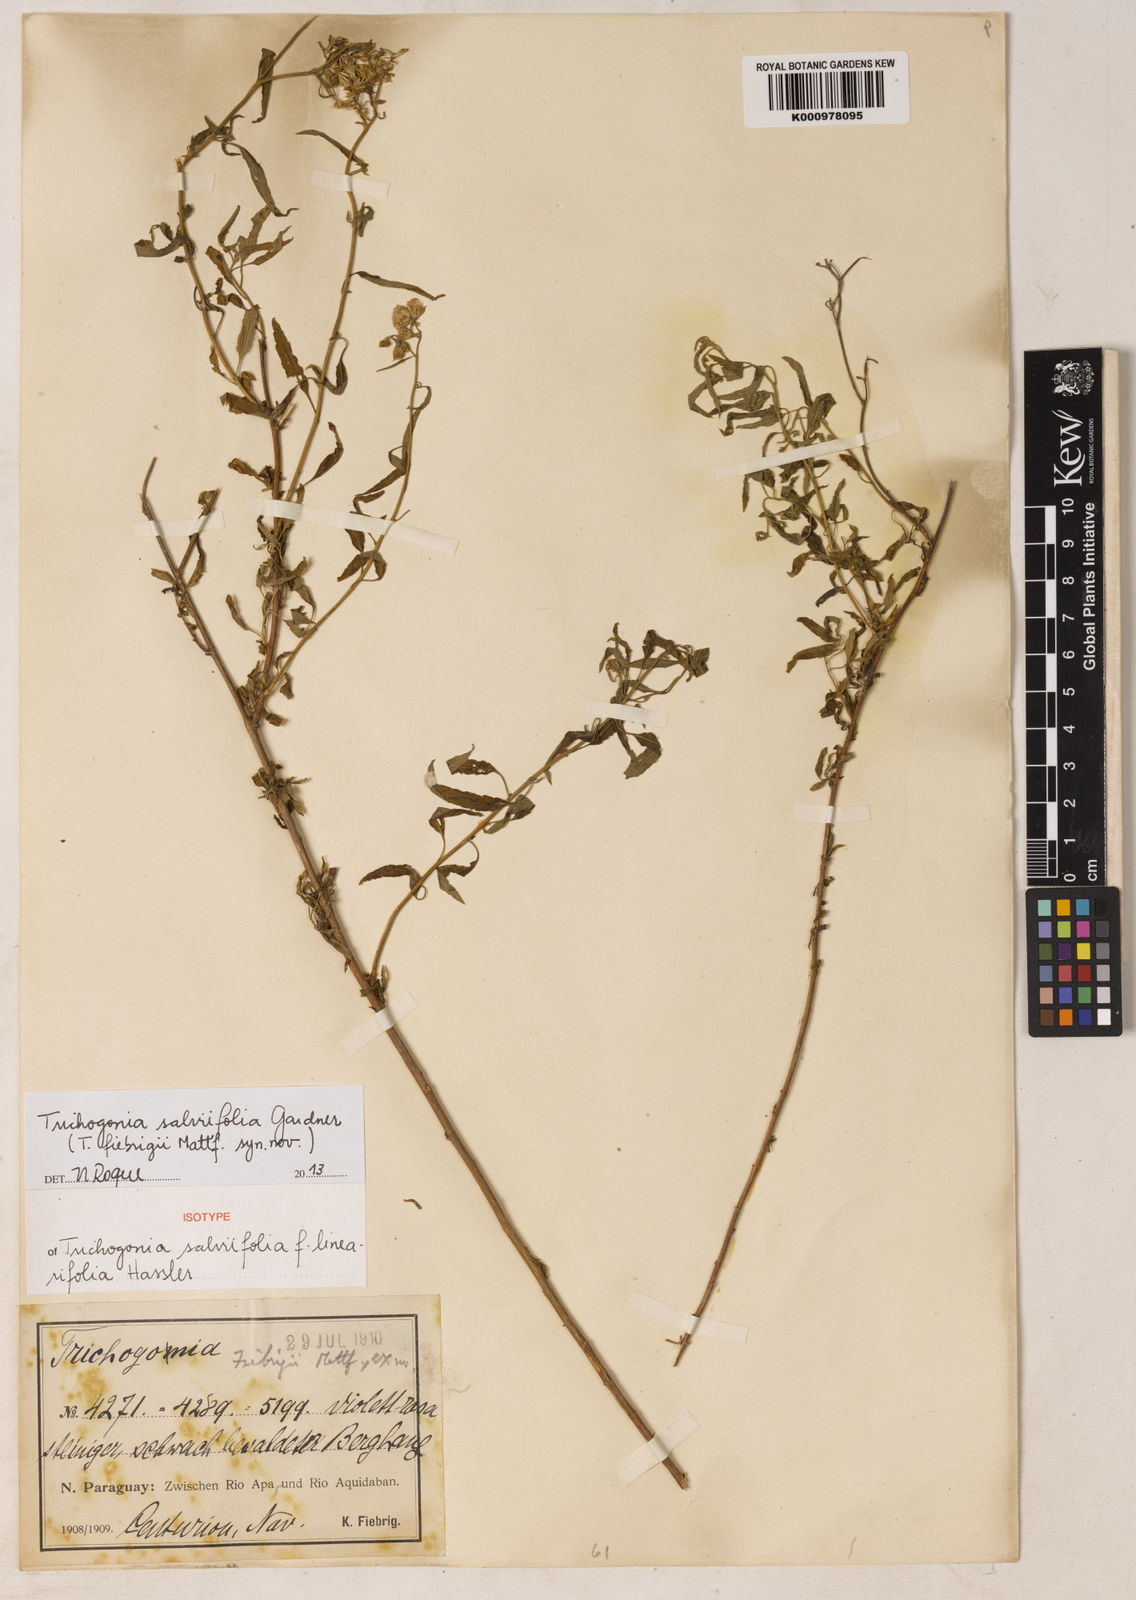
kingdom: Plantae
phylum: Tracheophyta
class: Magnoliopsida
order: Asterales
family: Asteraceae
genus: Trichogonia
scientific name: Trichogonia fiebrigii
